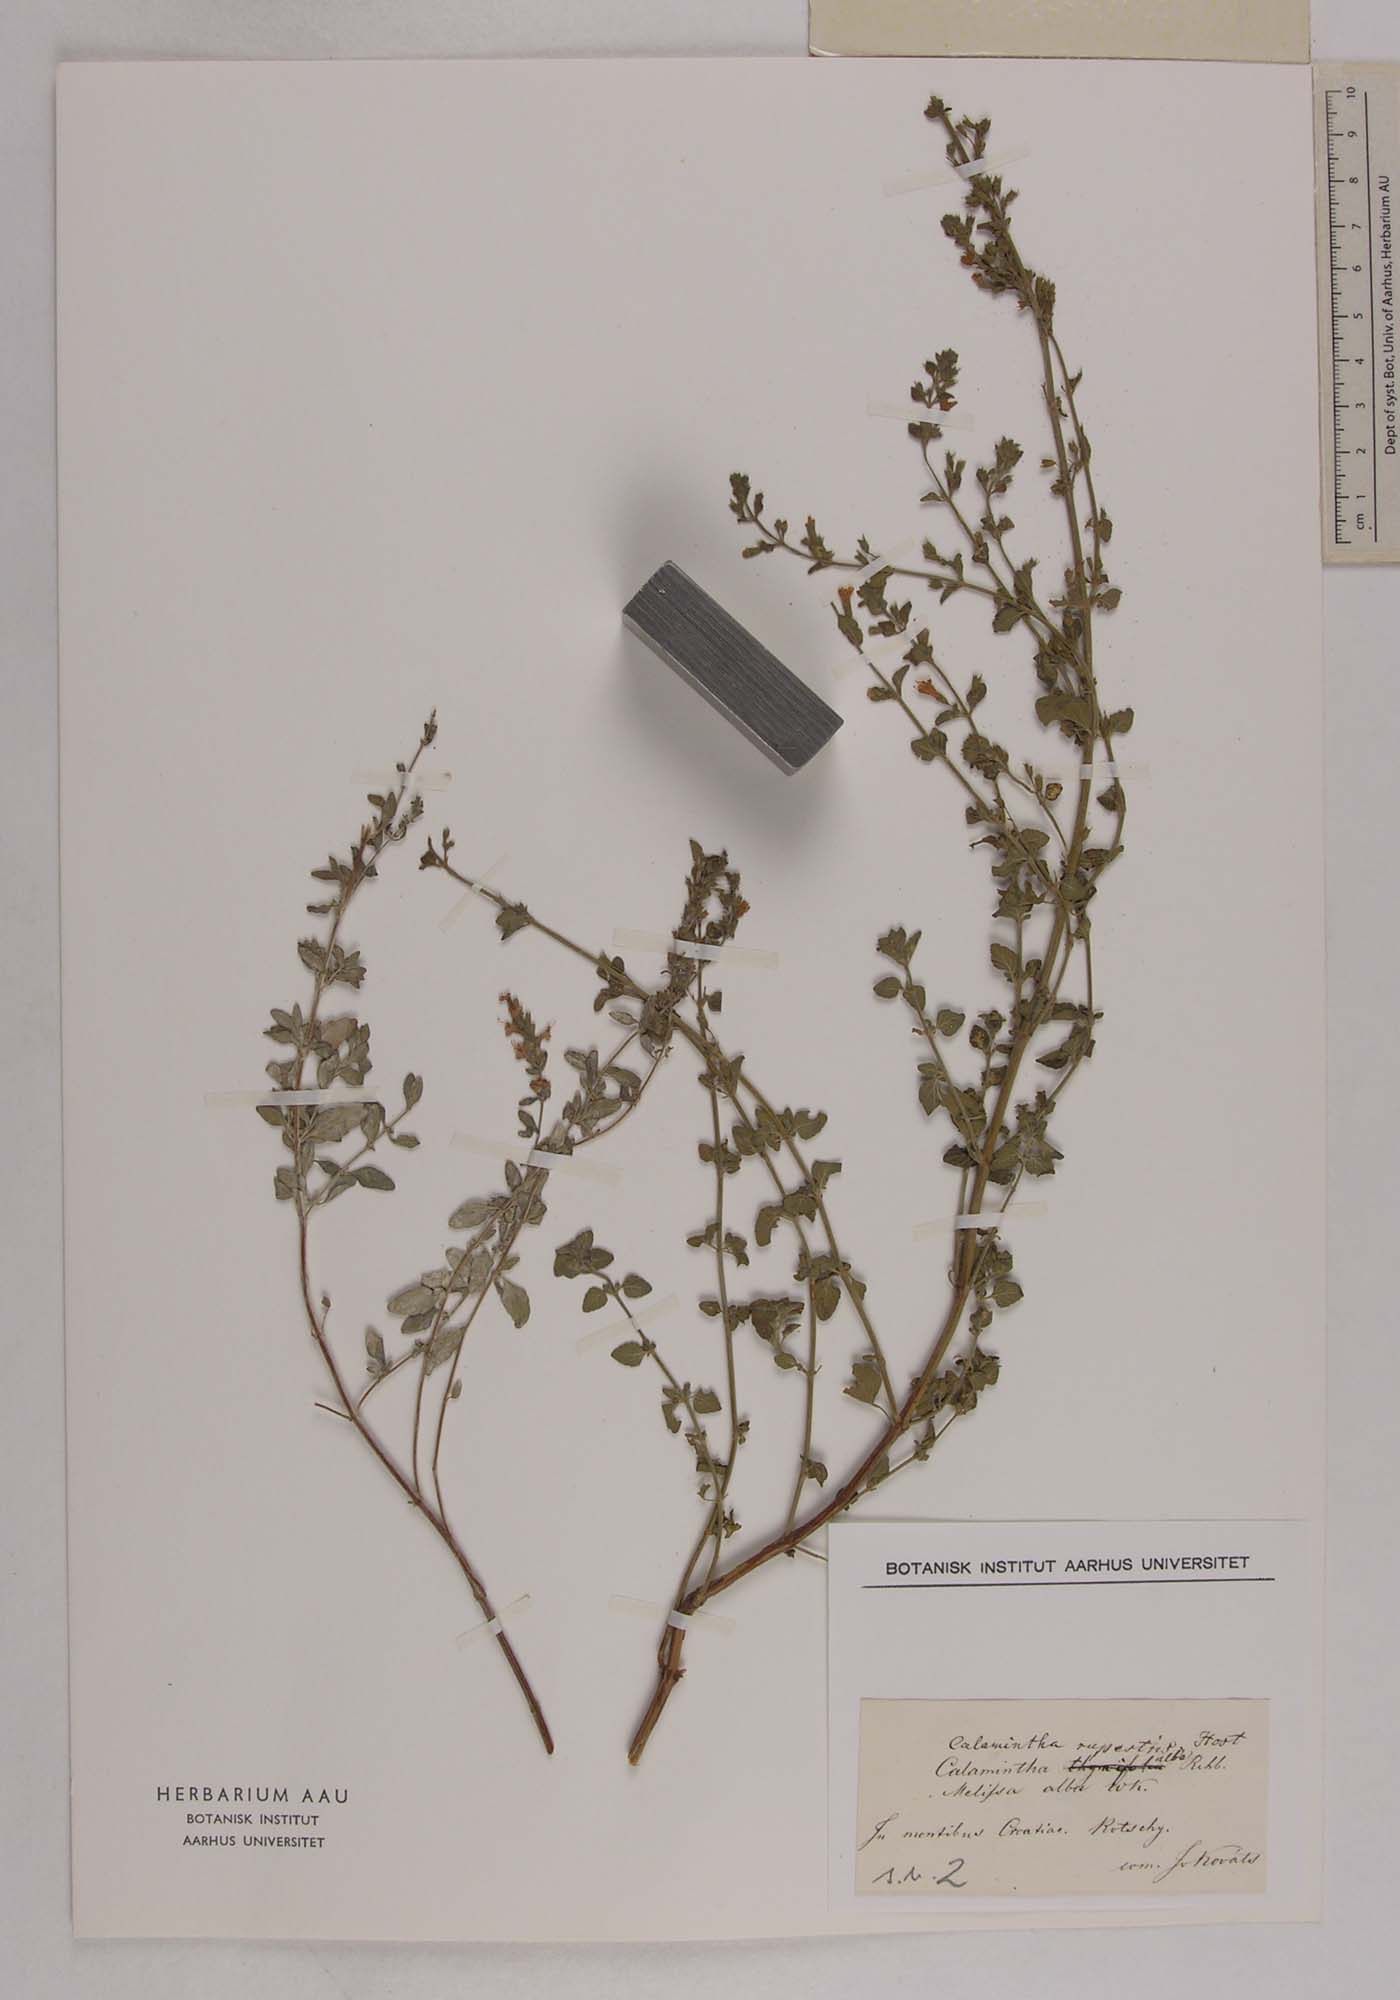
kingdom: Plantae
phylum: Tracheophyta
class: Magnoliopsida
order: Lamiales
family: Lamiaceae
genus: Clinopodium
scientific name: Clinopodium album
